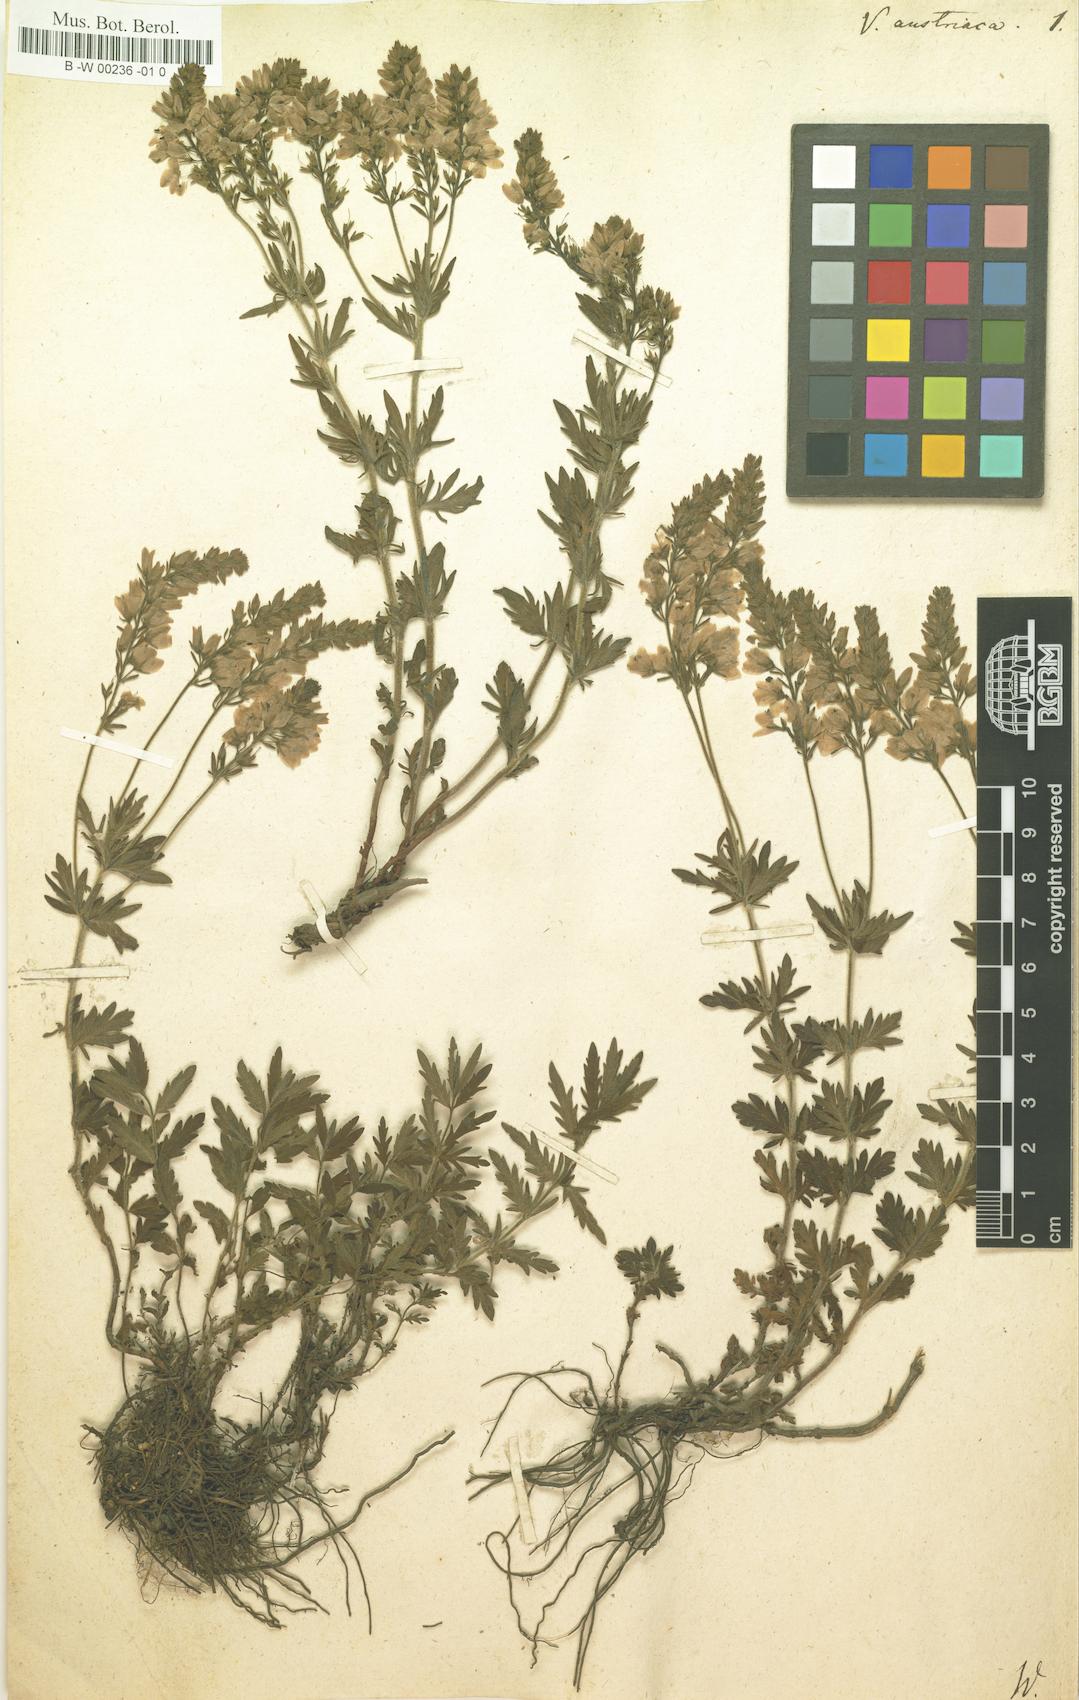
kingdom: Plantae
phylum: Tracheophyta
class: Magnoliopsida
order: Lamiales
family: Plantaginaceae
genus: Veronica
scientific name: Veronica austriaca
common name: Large speedwell
